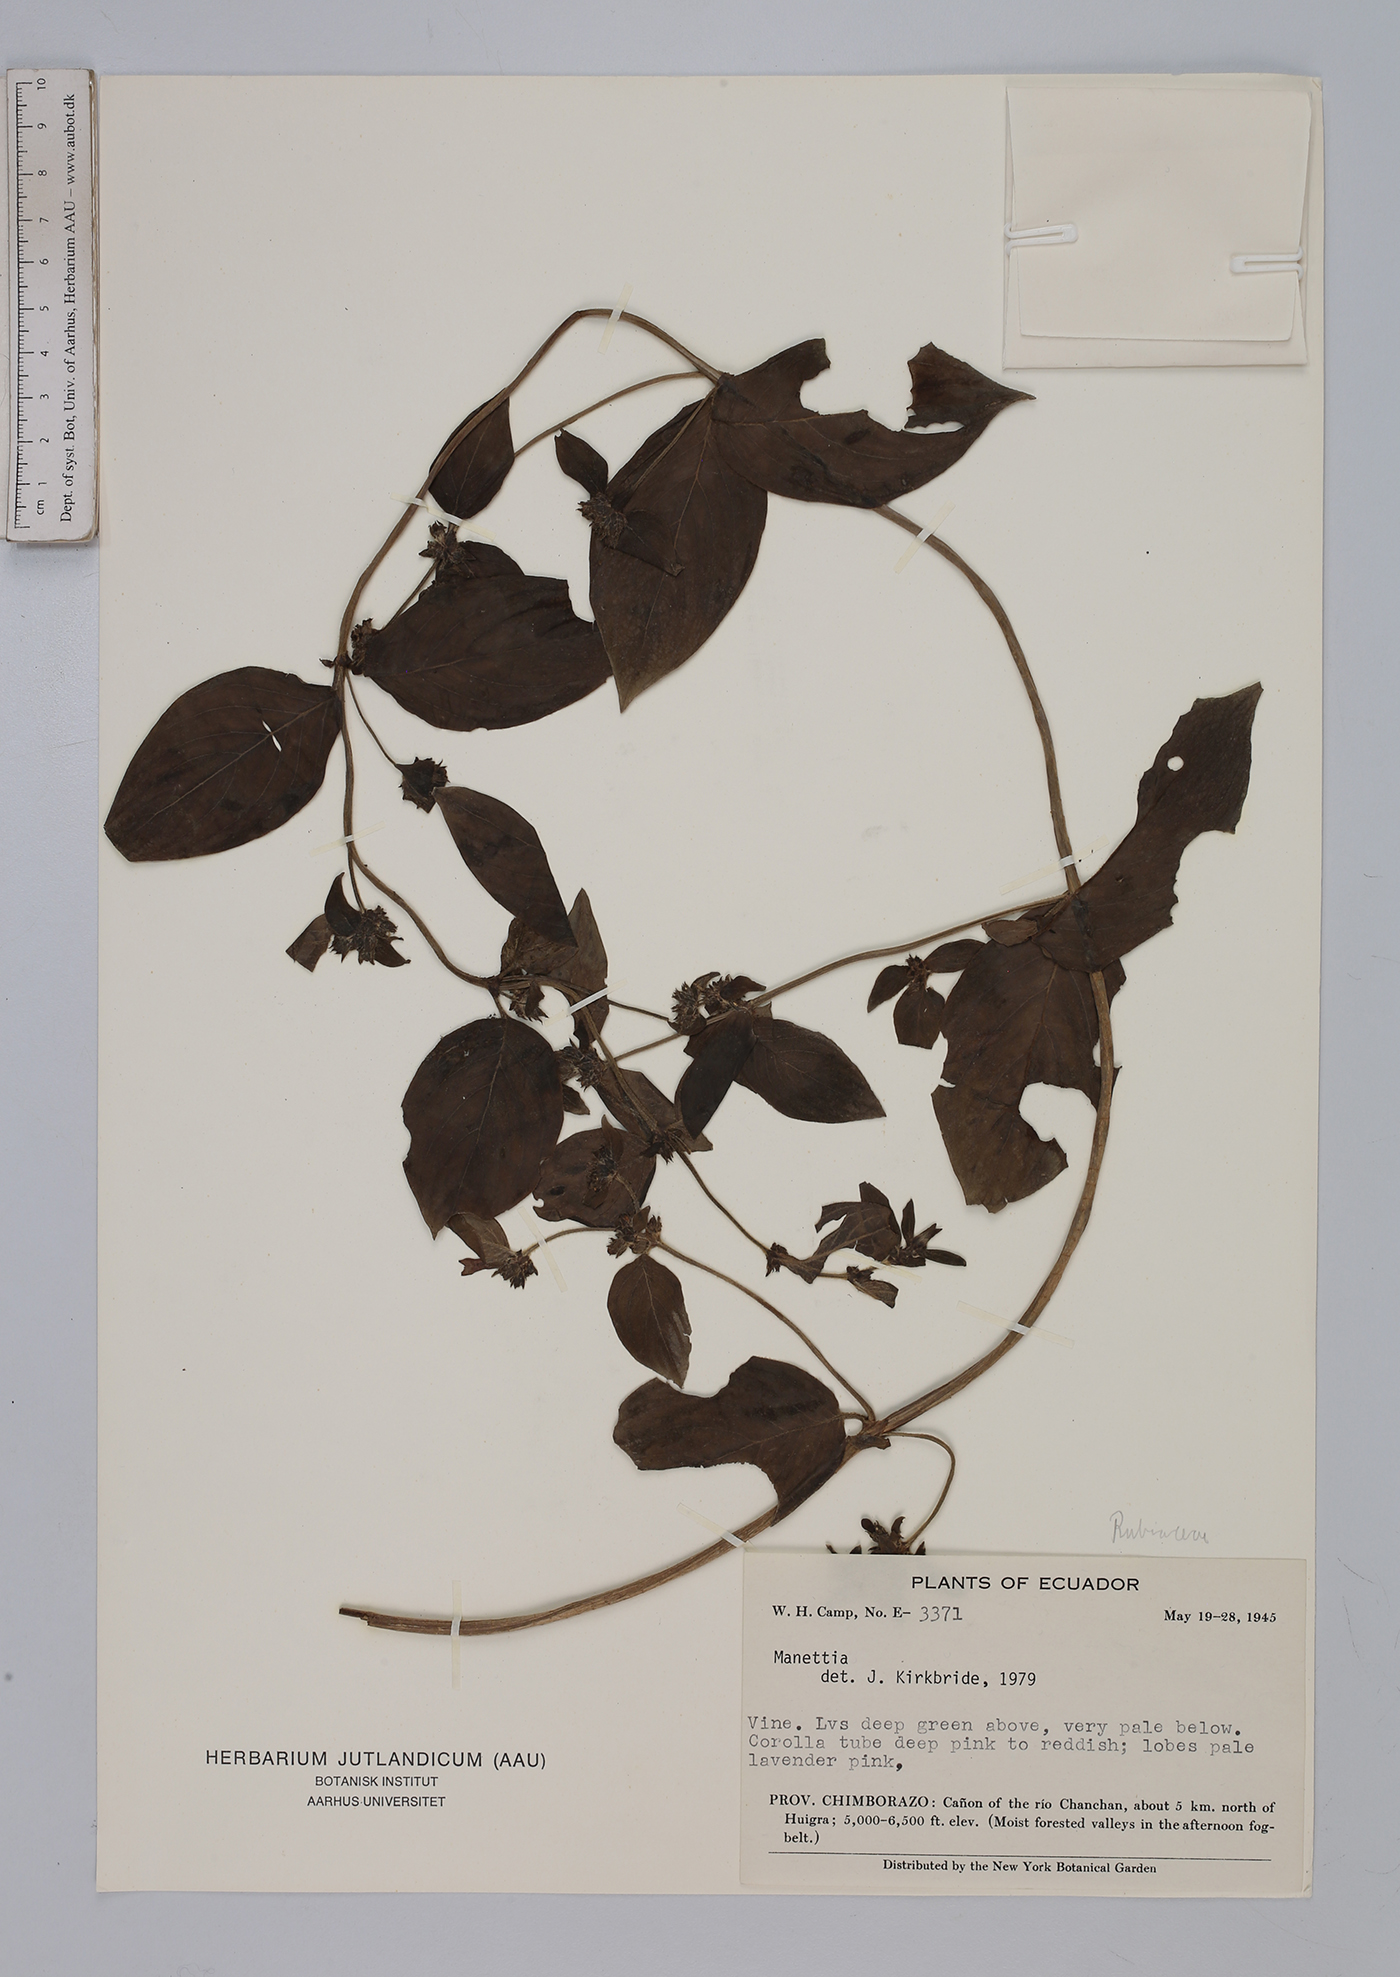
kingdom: Plantae
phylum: Tracheophyta
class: Magnoliopsida
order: Gentianales
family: Rubiaceae
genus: Manettia
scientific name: Manettia
